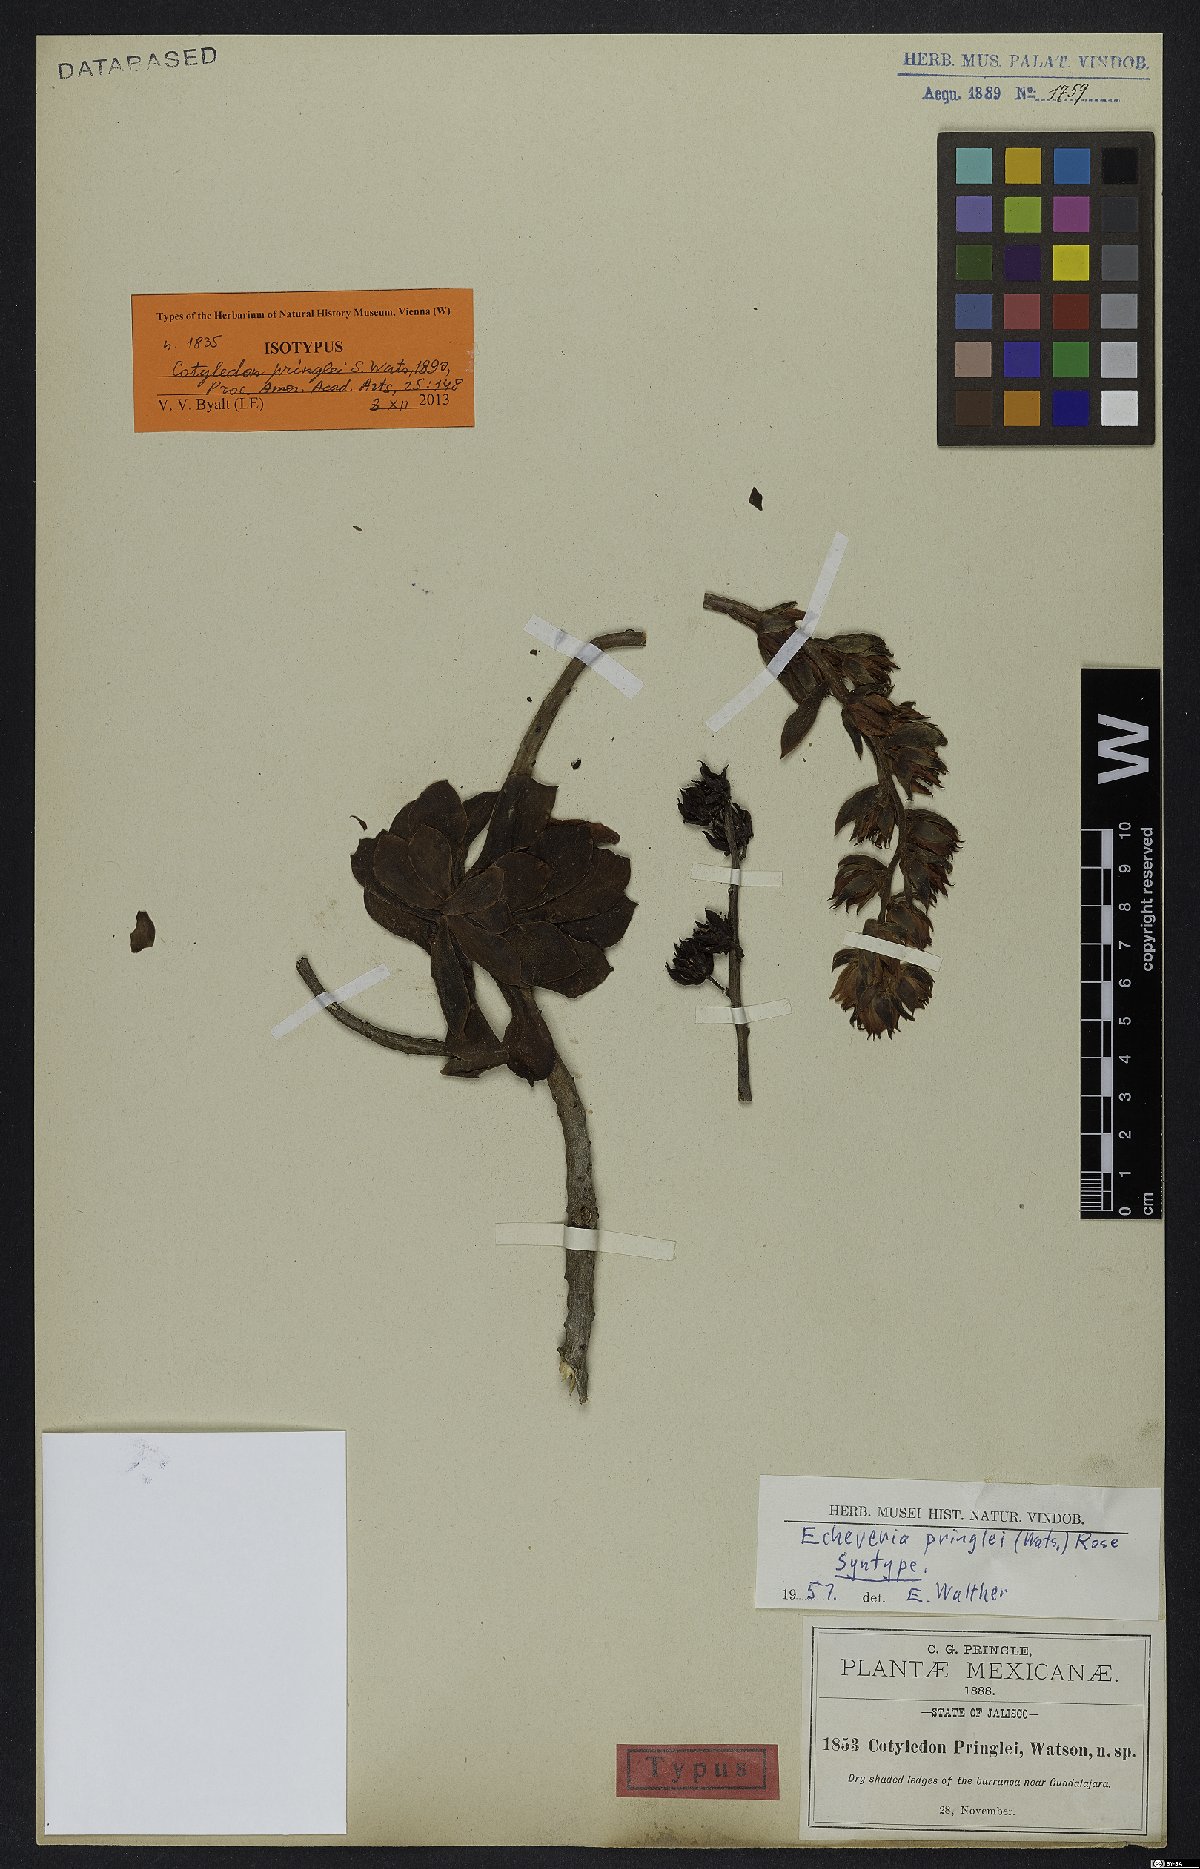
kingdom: Plantae
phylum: Tracheophyta
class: Magnoliopsida
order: Saxifragales
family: Crassulaceae
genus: Echeveria
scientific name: Echeveria pringlei
